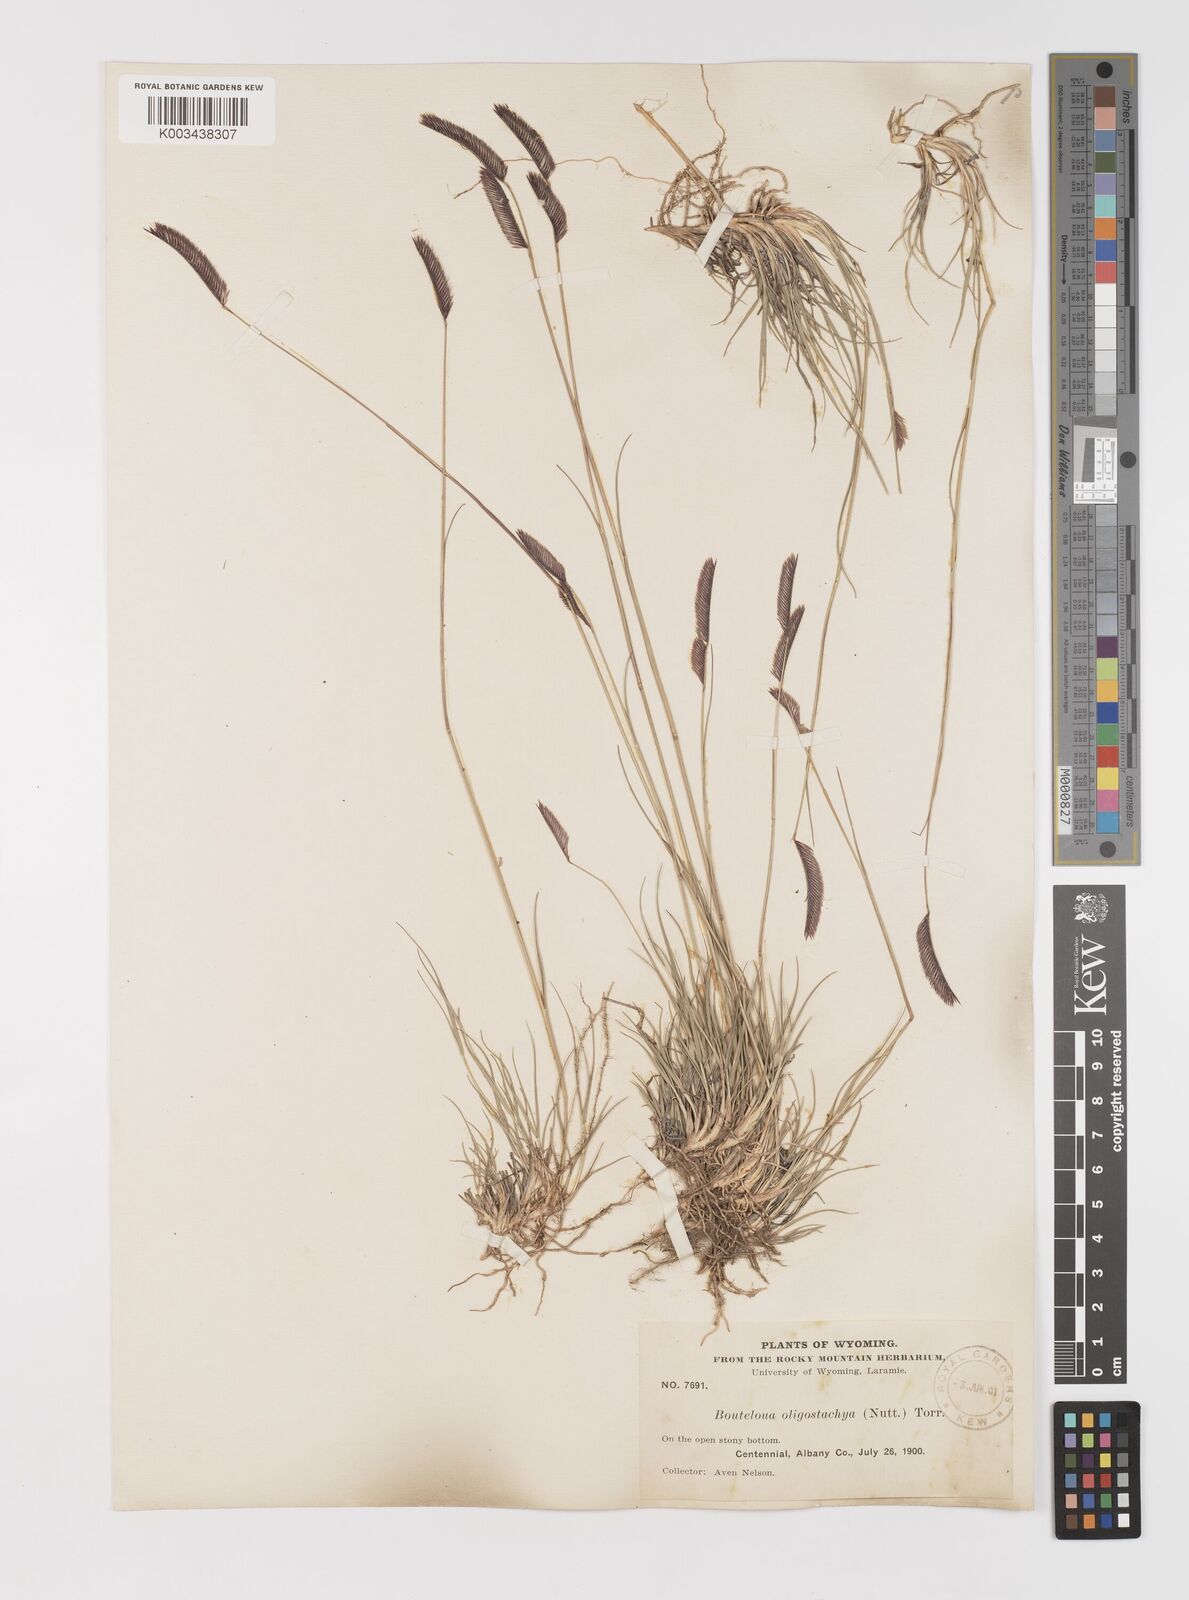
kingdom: Plantae
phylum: Tracheophyta
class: Liliopsida
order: Poales
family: Poaceae
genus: Bouteloua
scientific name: Bouteloua
